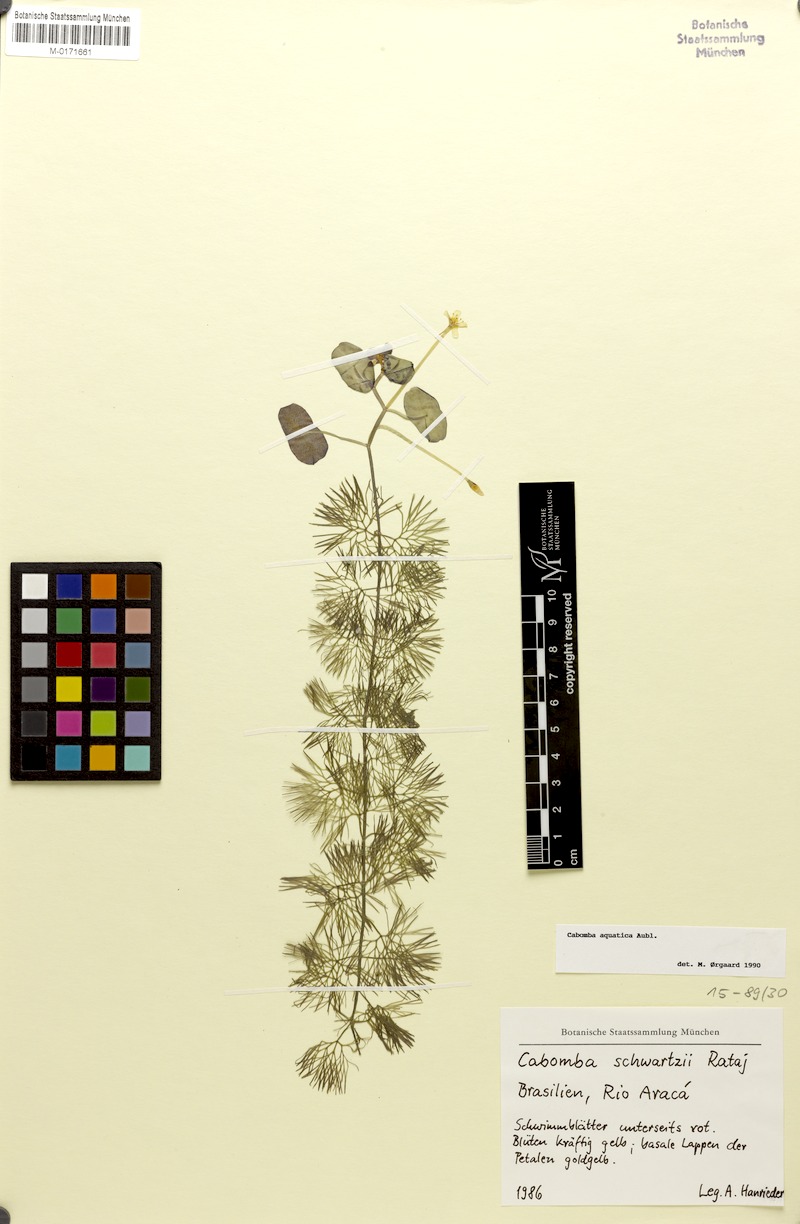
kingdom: Plantae
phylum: Tracheophyta
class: Magnoliopsida
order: Nymphaeales
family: Cabombaceae
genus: Cabomba
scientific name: Cabomba aquatica
